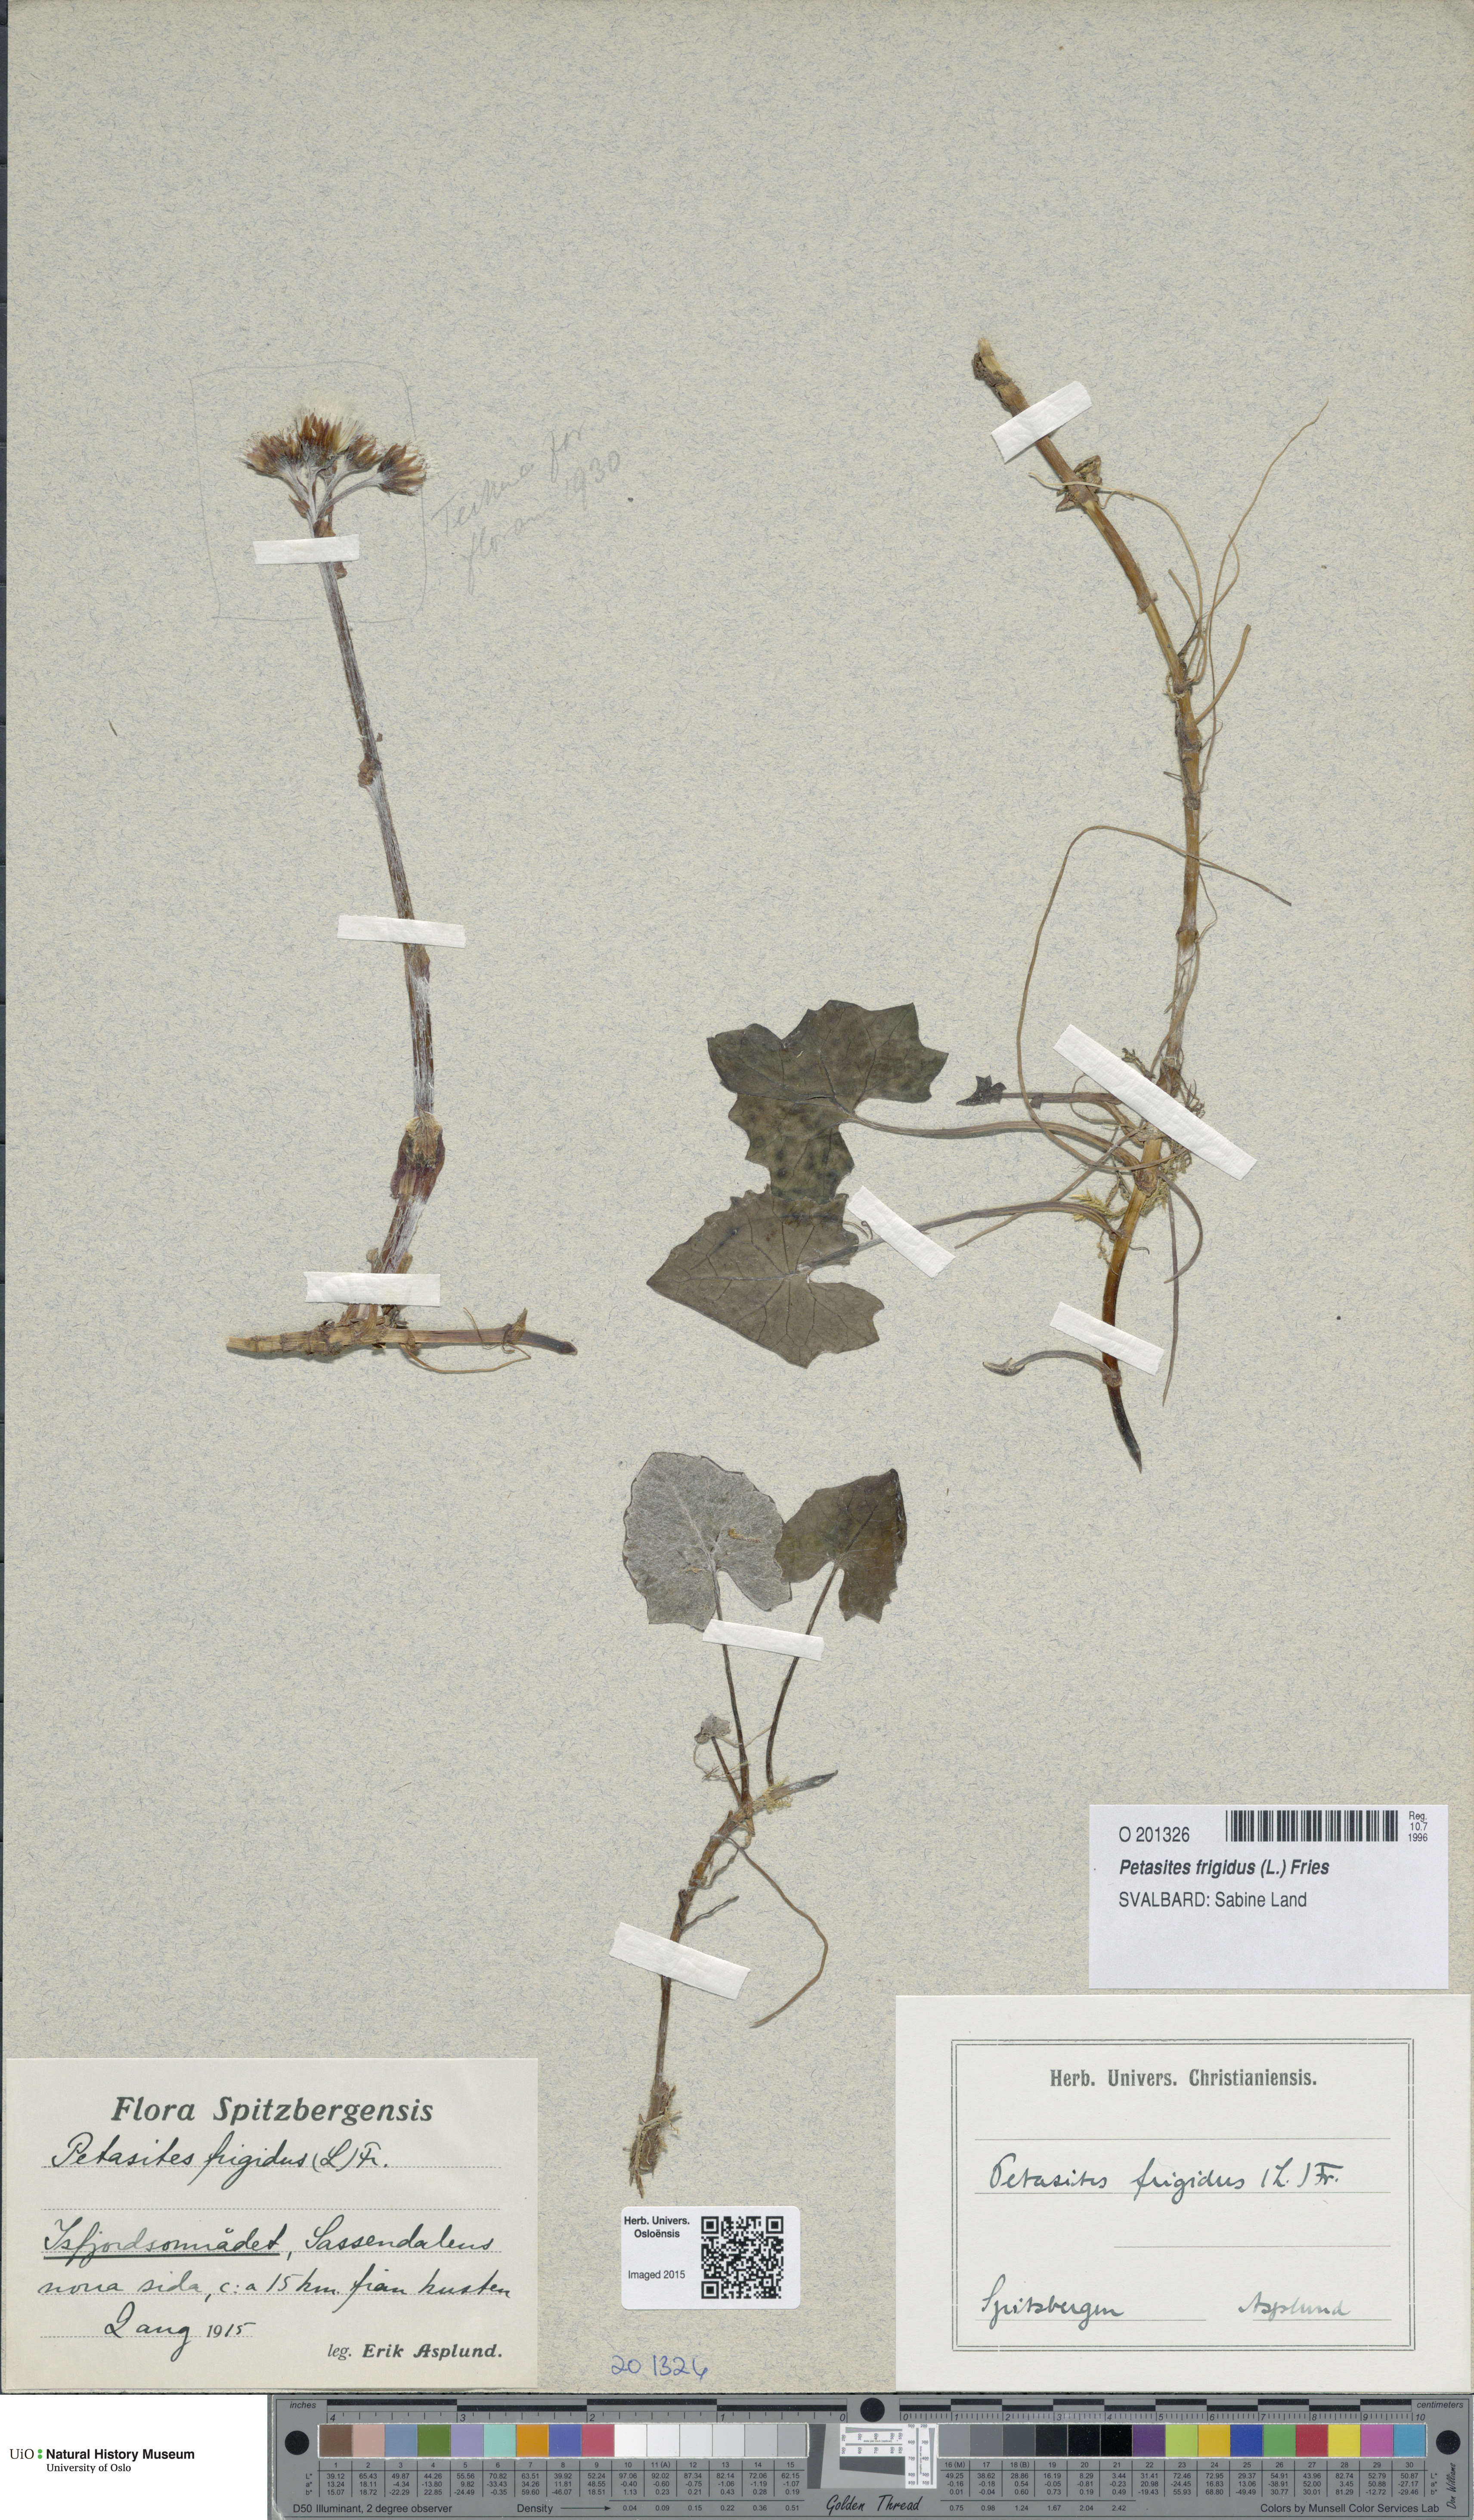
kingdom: Plantae
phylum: Tracheophyta
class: Magnoliopsida
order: Asterales
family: Asteraceae
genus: Petasites
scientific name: Petasites frigidus
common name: Arctic butterbur
